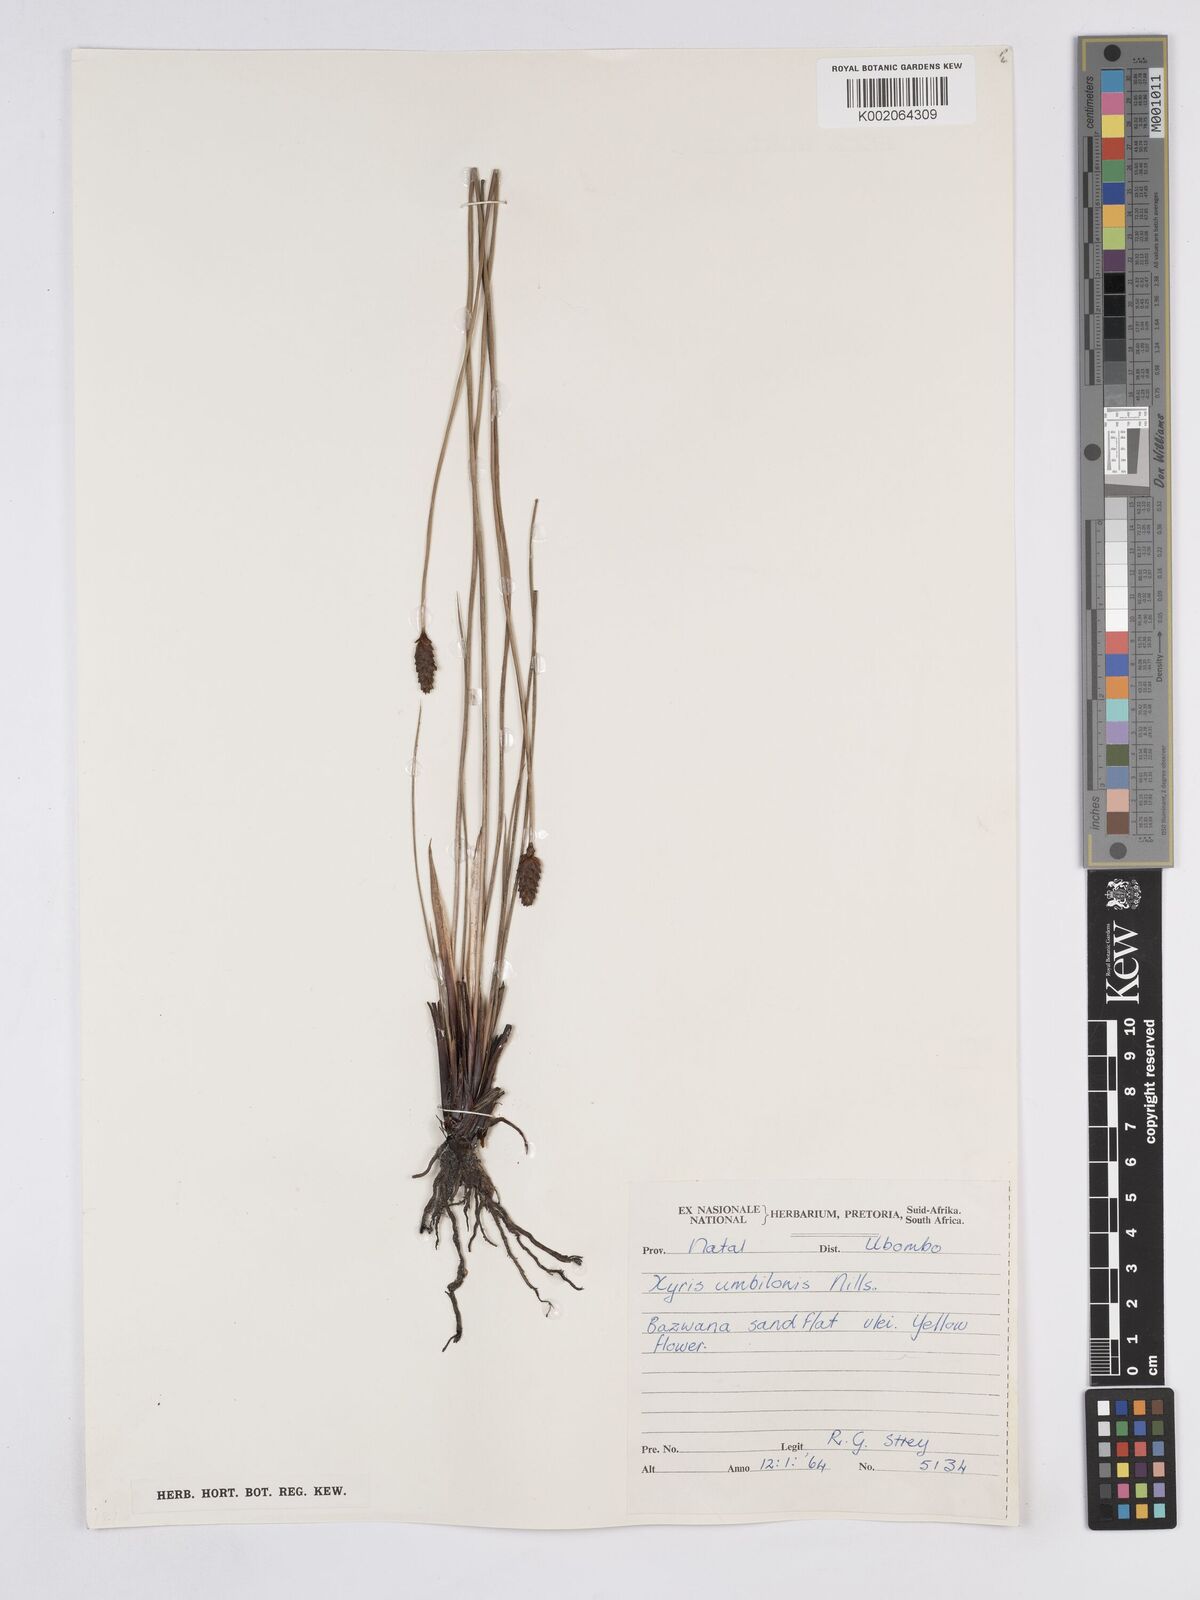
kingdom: Plantae
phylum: Tracheophyta
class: Liliopsida
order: Poales
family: Xyridaceae
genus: Xyris
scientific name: Xyris congensis
